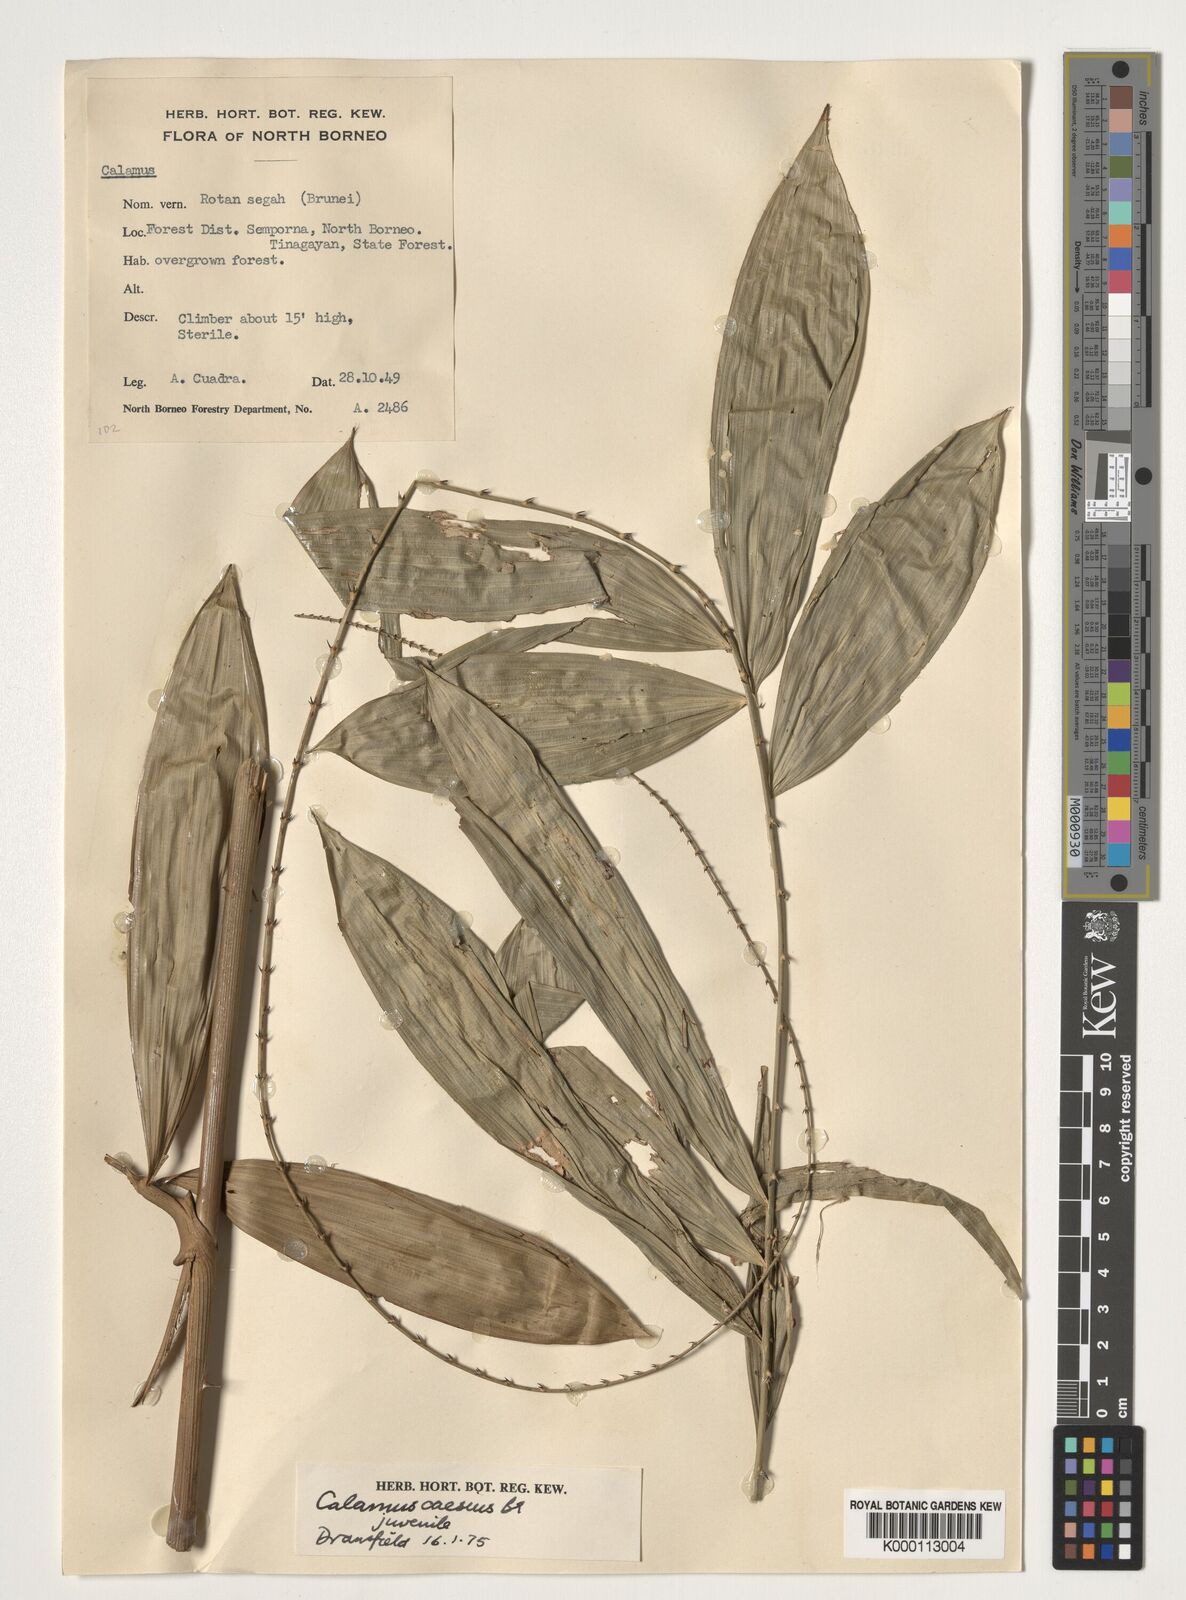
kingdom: Plantae
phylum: Tracheophyta
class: Liliopsida
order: Arecales
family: Arecaceae
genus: Calamus
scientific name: Calamus caesius
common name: Rattan palm
